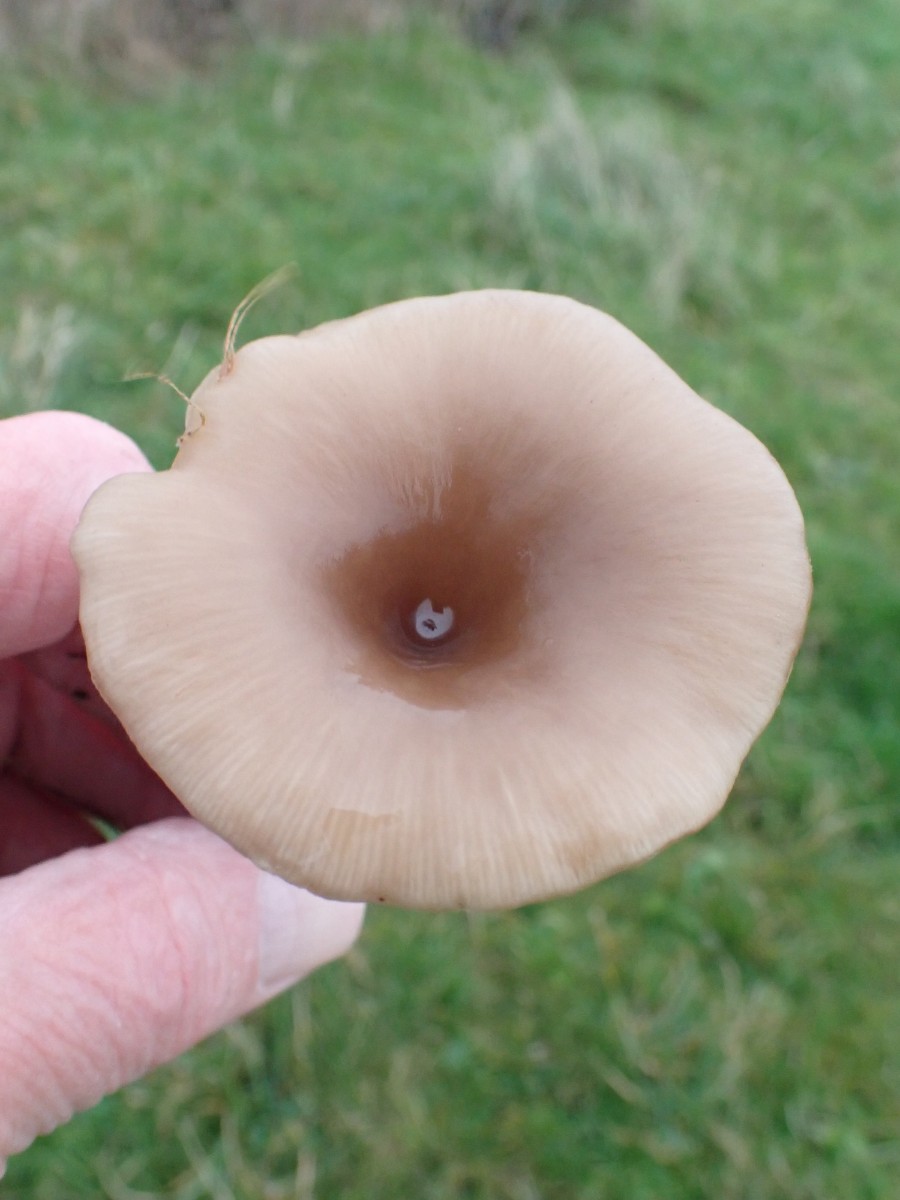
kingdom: Fungi
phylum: Basidiomycota
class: Agaricomycetes
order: Agaricales
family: Pseudoclitocybaceae
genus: Pseudoclitocybe
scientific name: Pseudoclitocybe expallens
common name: lille bægertragthat
